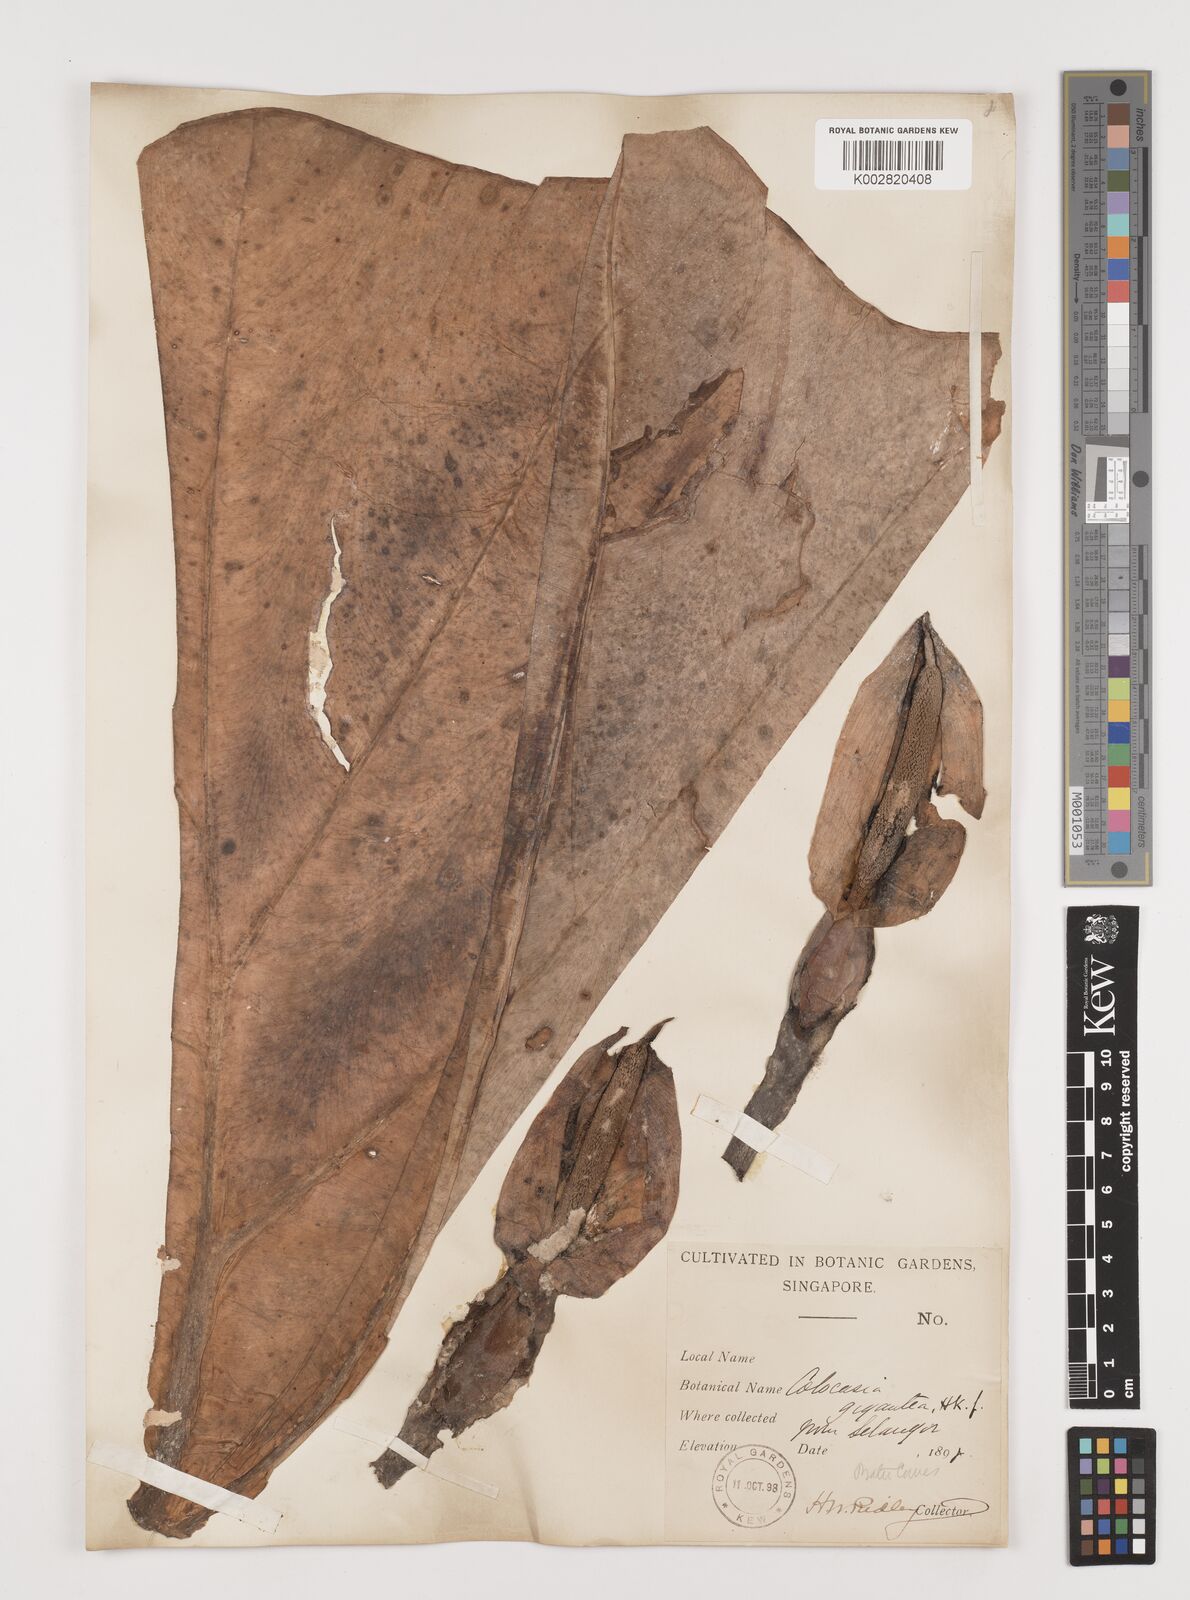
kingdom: Plantae
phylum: Tracheophyta
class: Liliopsida
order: Alismatales
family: Araceae
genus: Leucocasia
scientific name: Leucocasia gigantea
